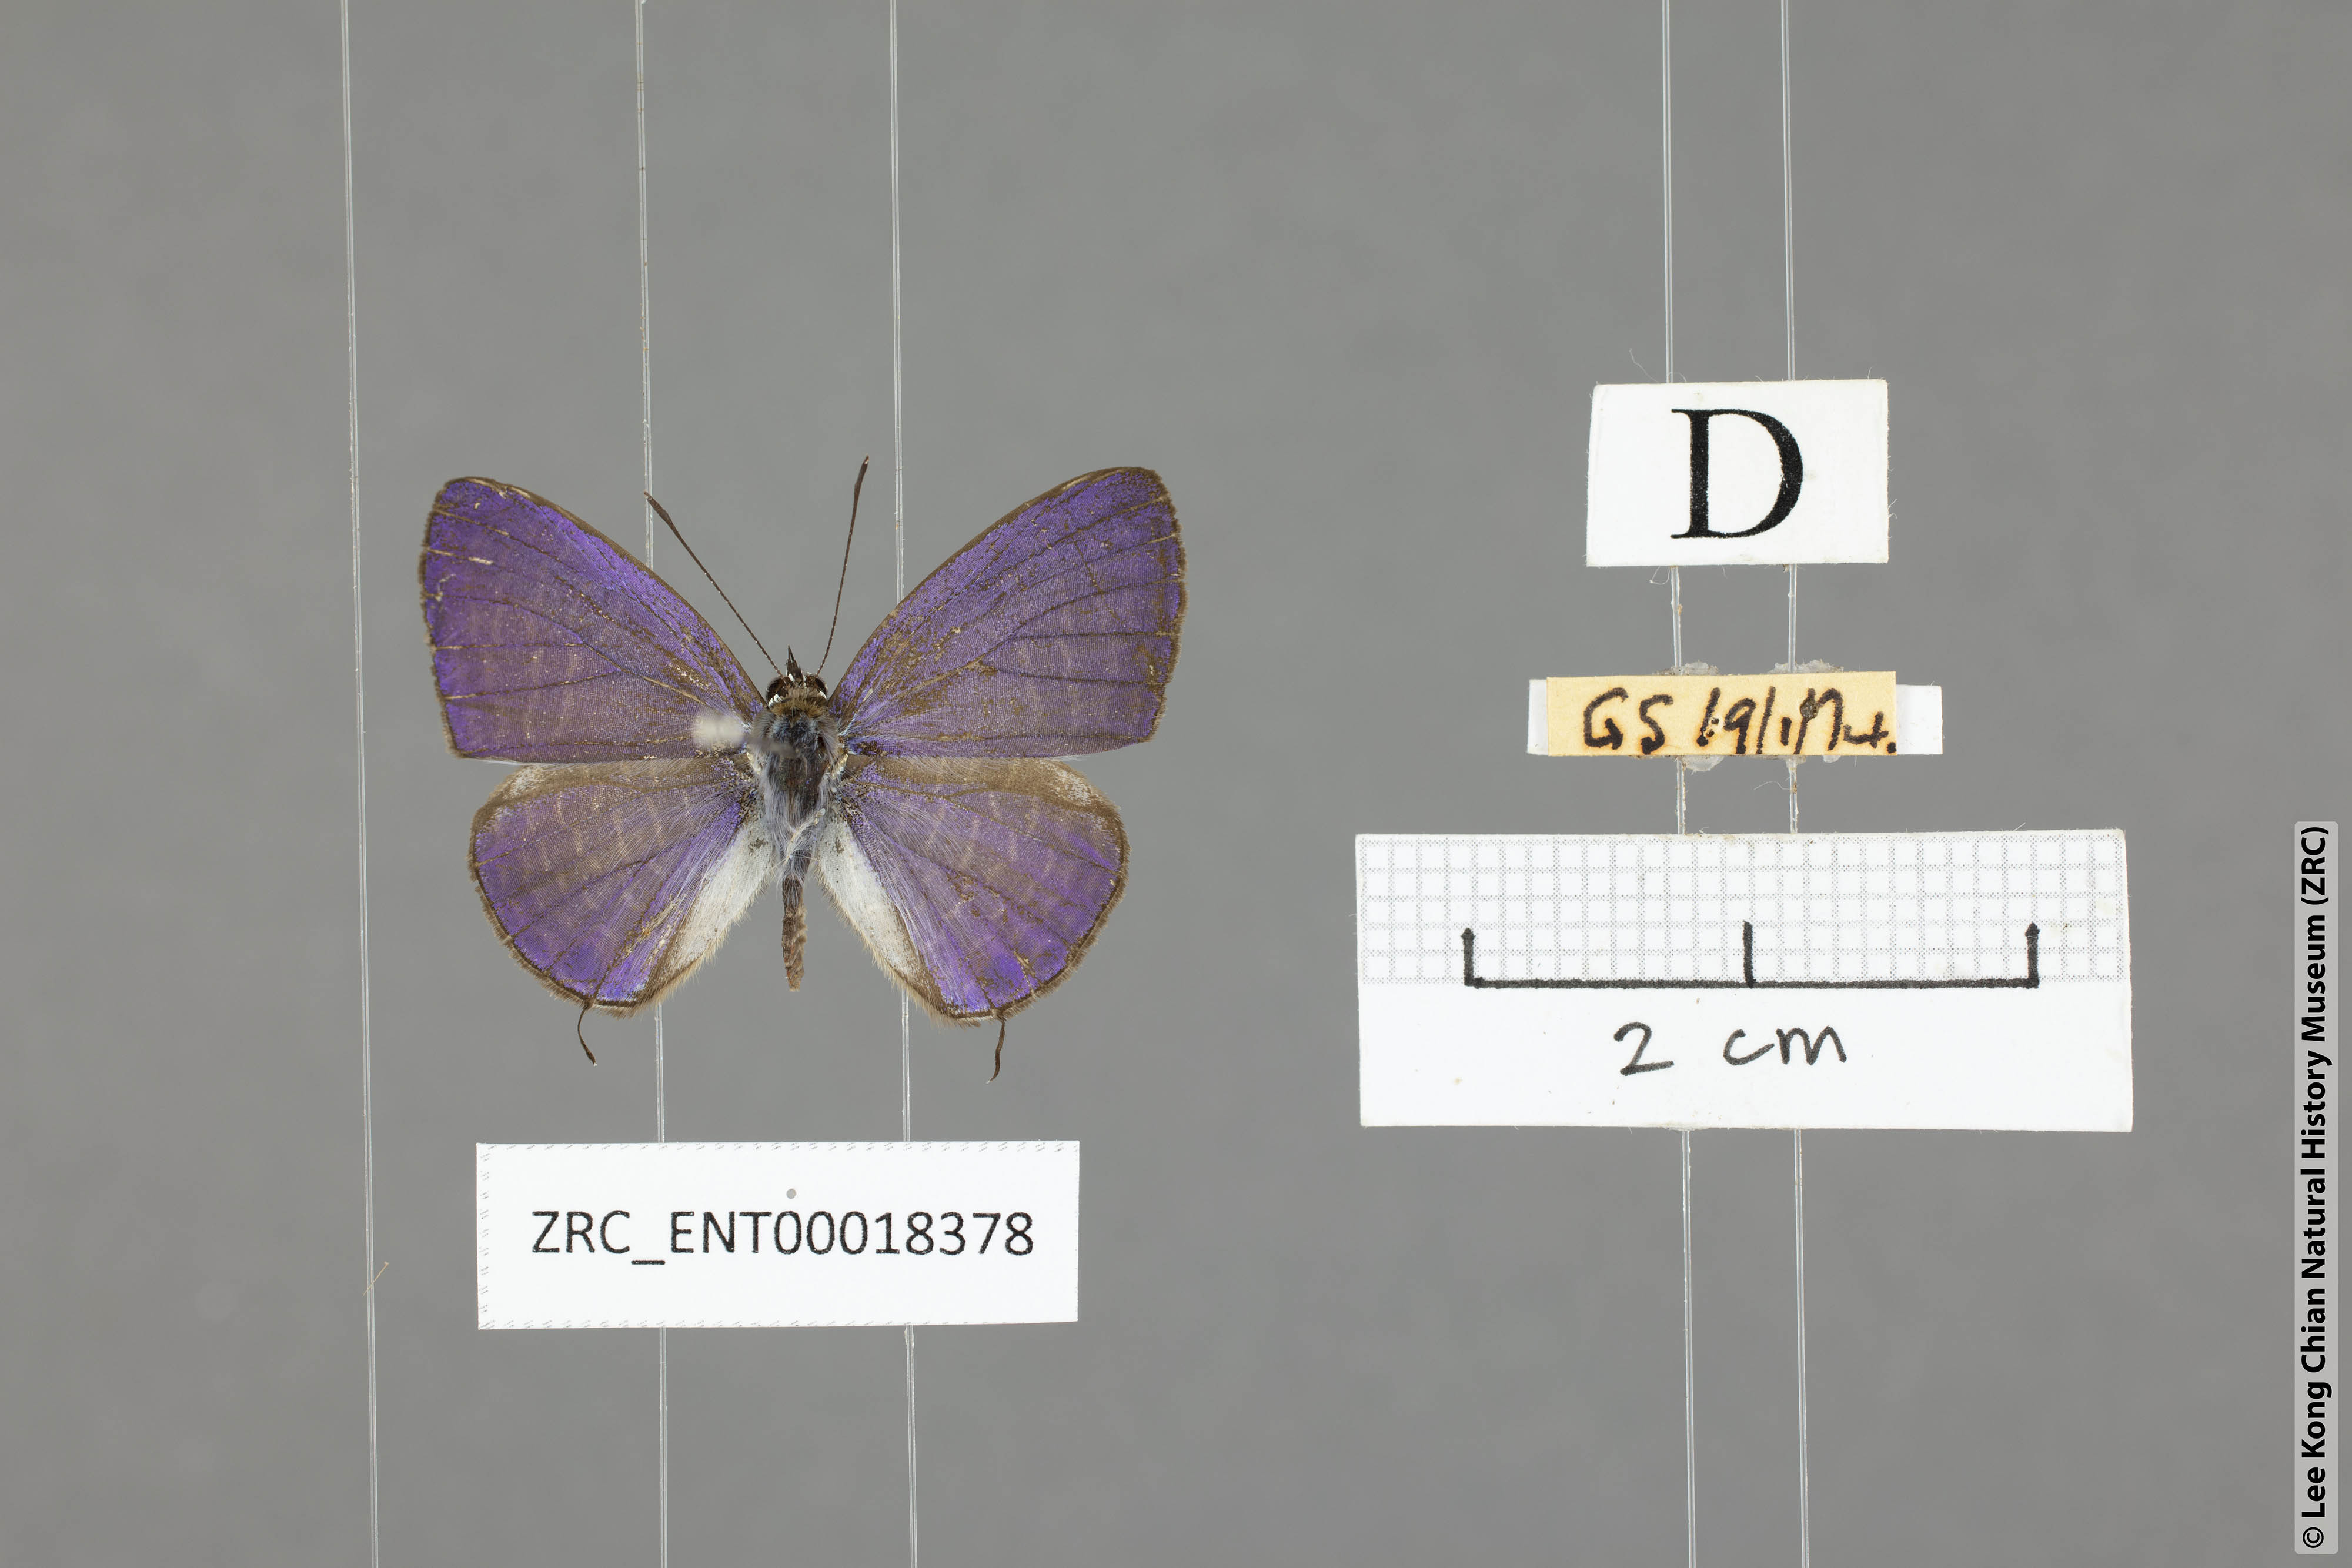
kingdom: Animalia
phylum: Arthropoda
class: Insecta
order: Lepidoptera
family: Lycaenidae
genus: Nacaduba
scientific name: Nacaduba kurava
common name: Transparent 6-line blue
